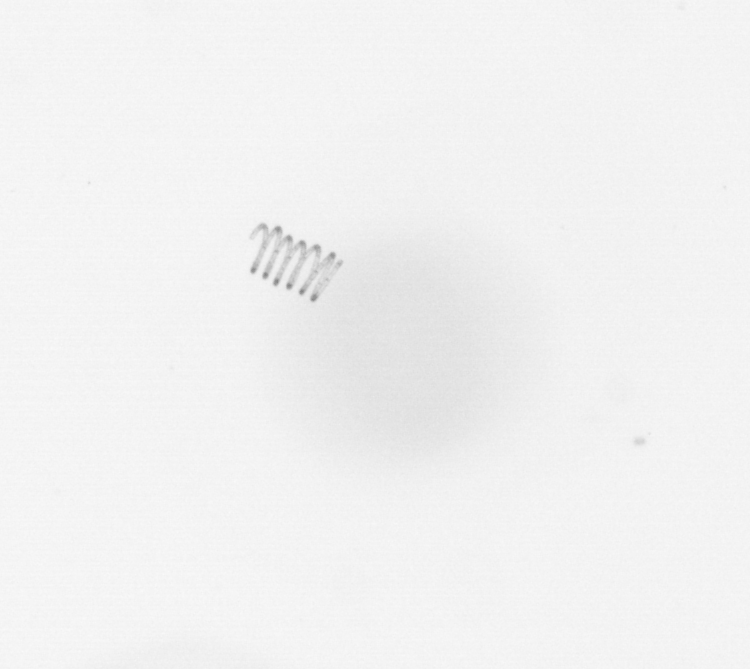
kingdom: Chromista
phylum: Ochrophyta
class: Bacillariophyceae
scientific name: Bacillariophyceae
